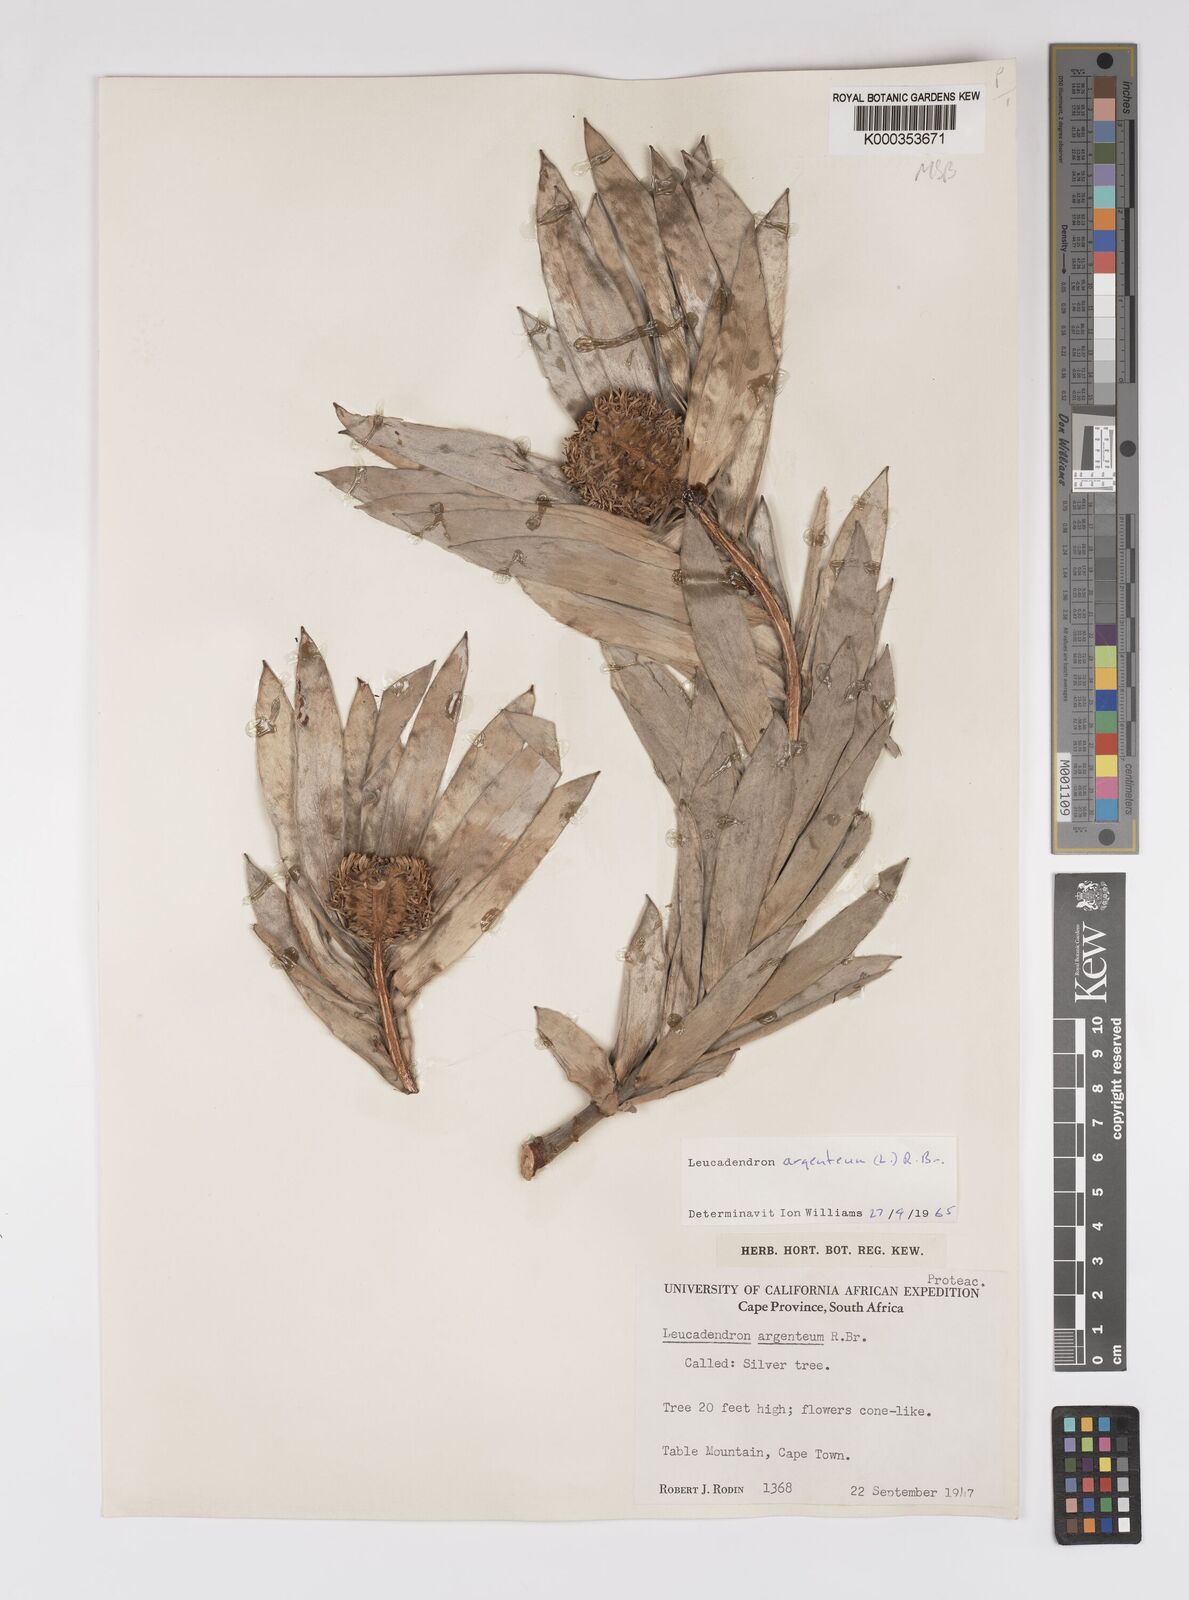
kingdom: Plantae
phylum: Tracheophyta
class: Magnoliopsida
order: Proteales
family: Proteaceae
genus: Leucadendron
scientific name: Leucadendron argenteum
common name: Cape silver tree
